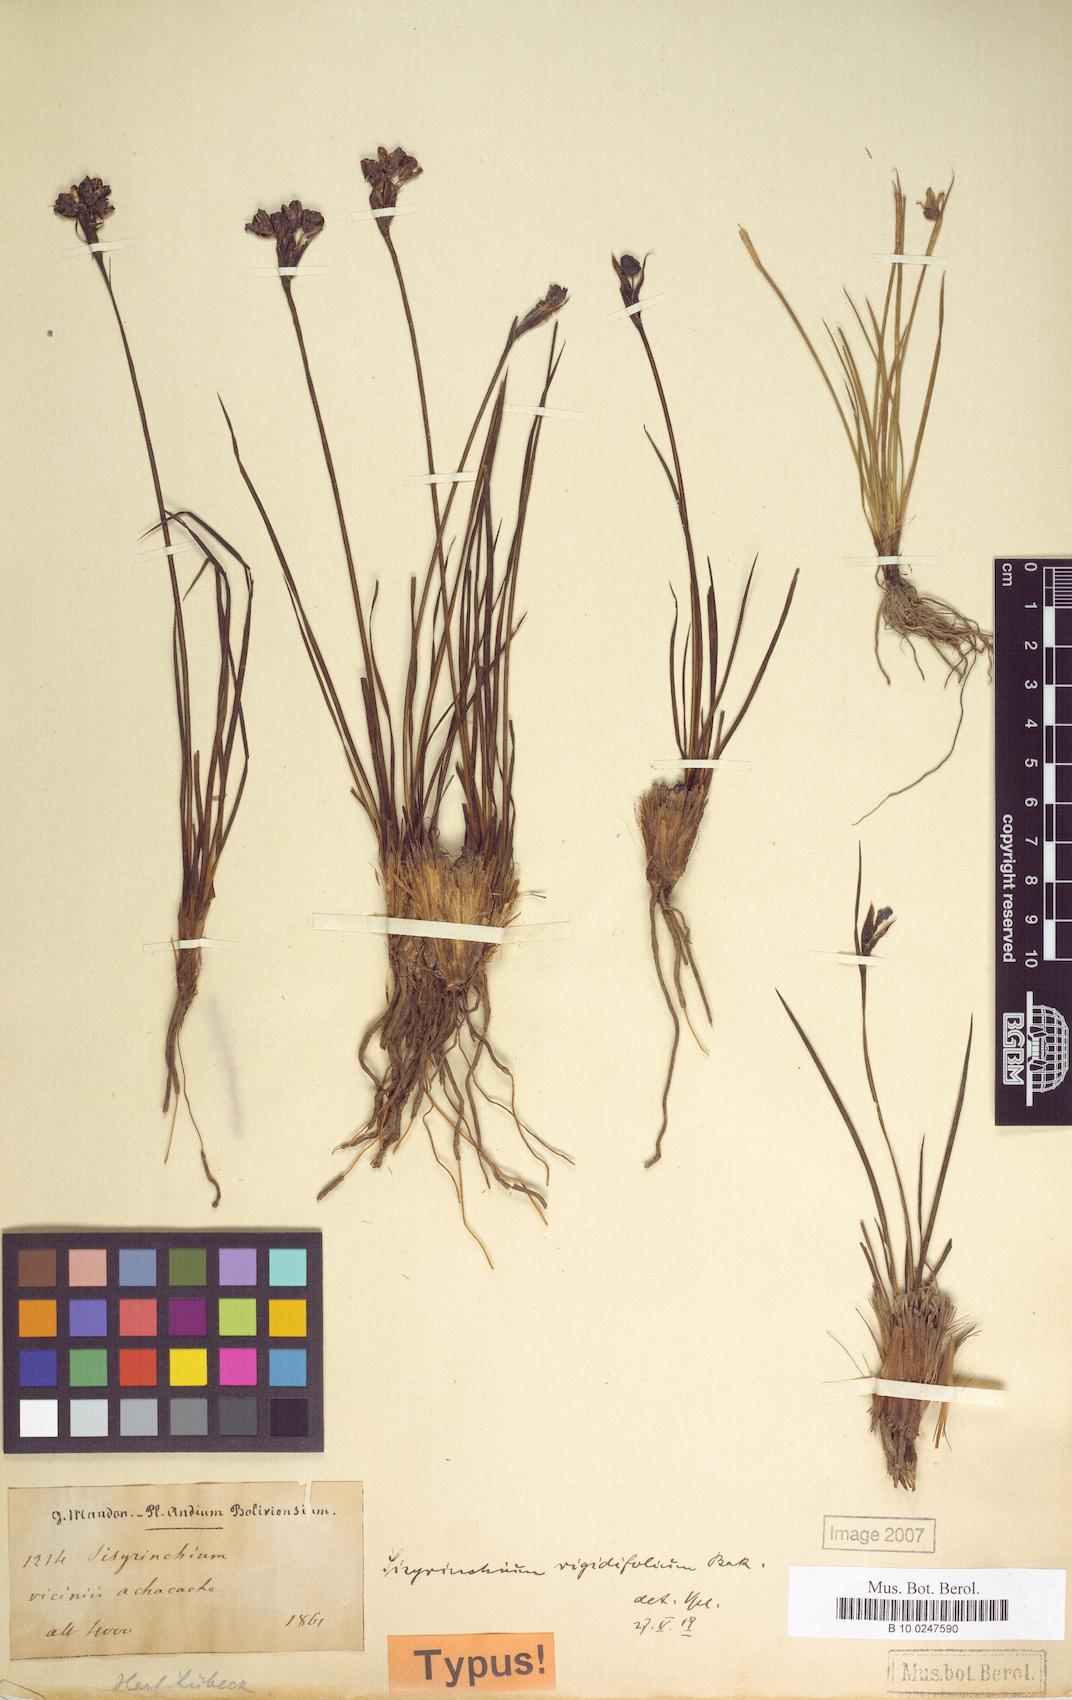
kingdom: Plantae
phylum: Tracheophyta
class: Liliopsida
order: Asparagales
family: Iridaceae
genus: Sisyrinchium
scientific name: Sisyrinchium rigidifolium
